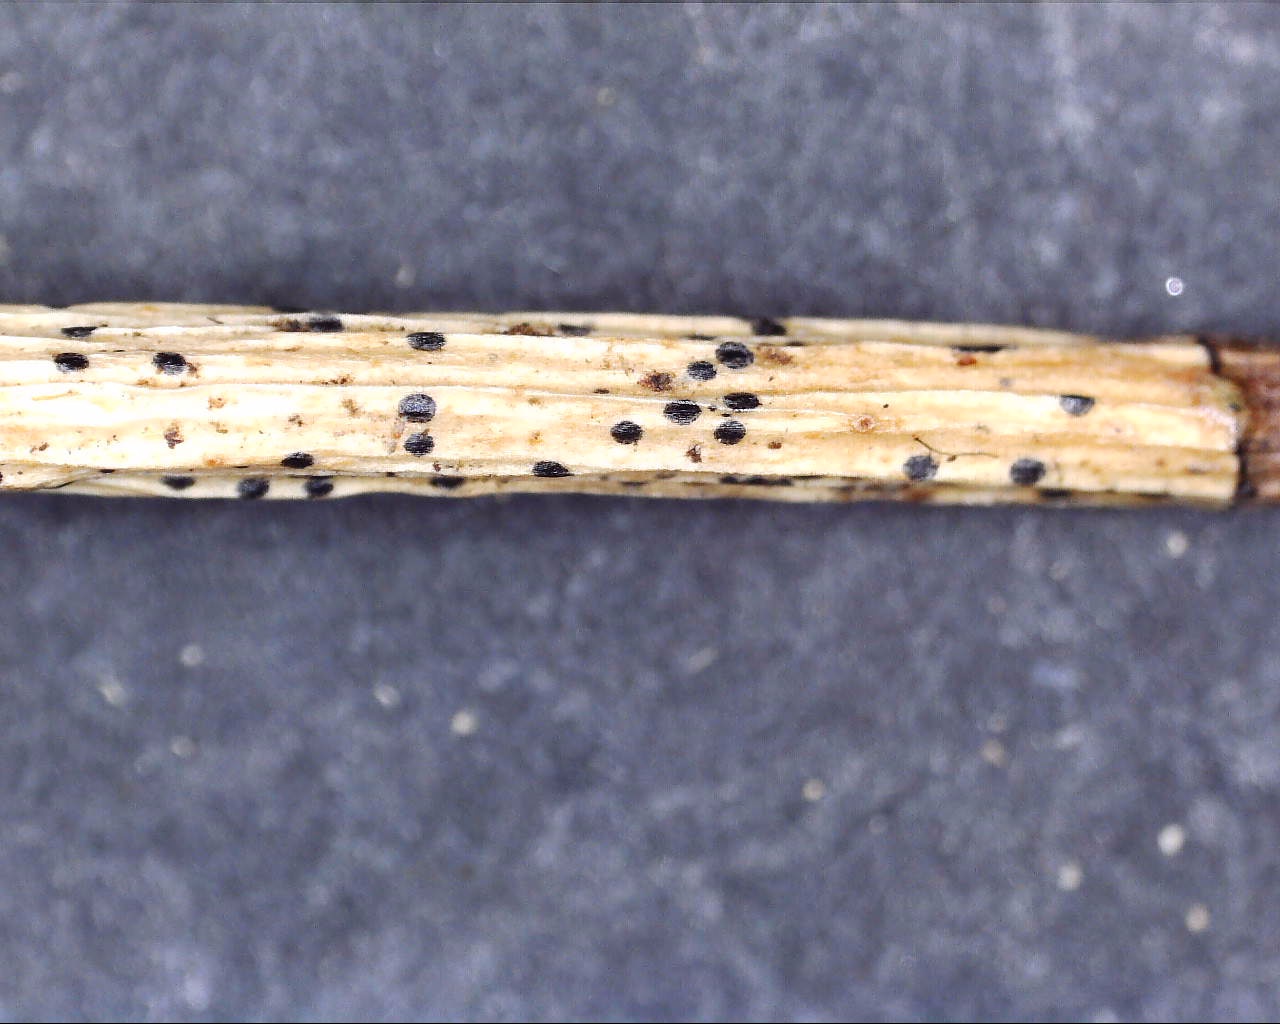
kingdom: Fungi
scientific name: Fungi
